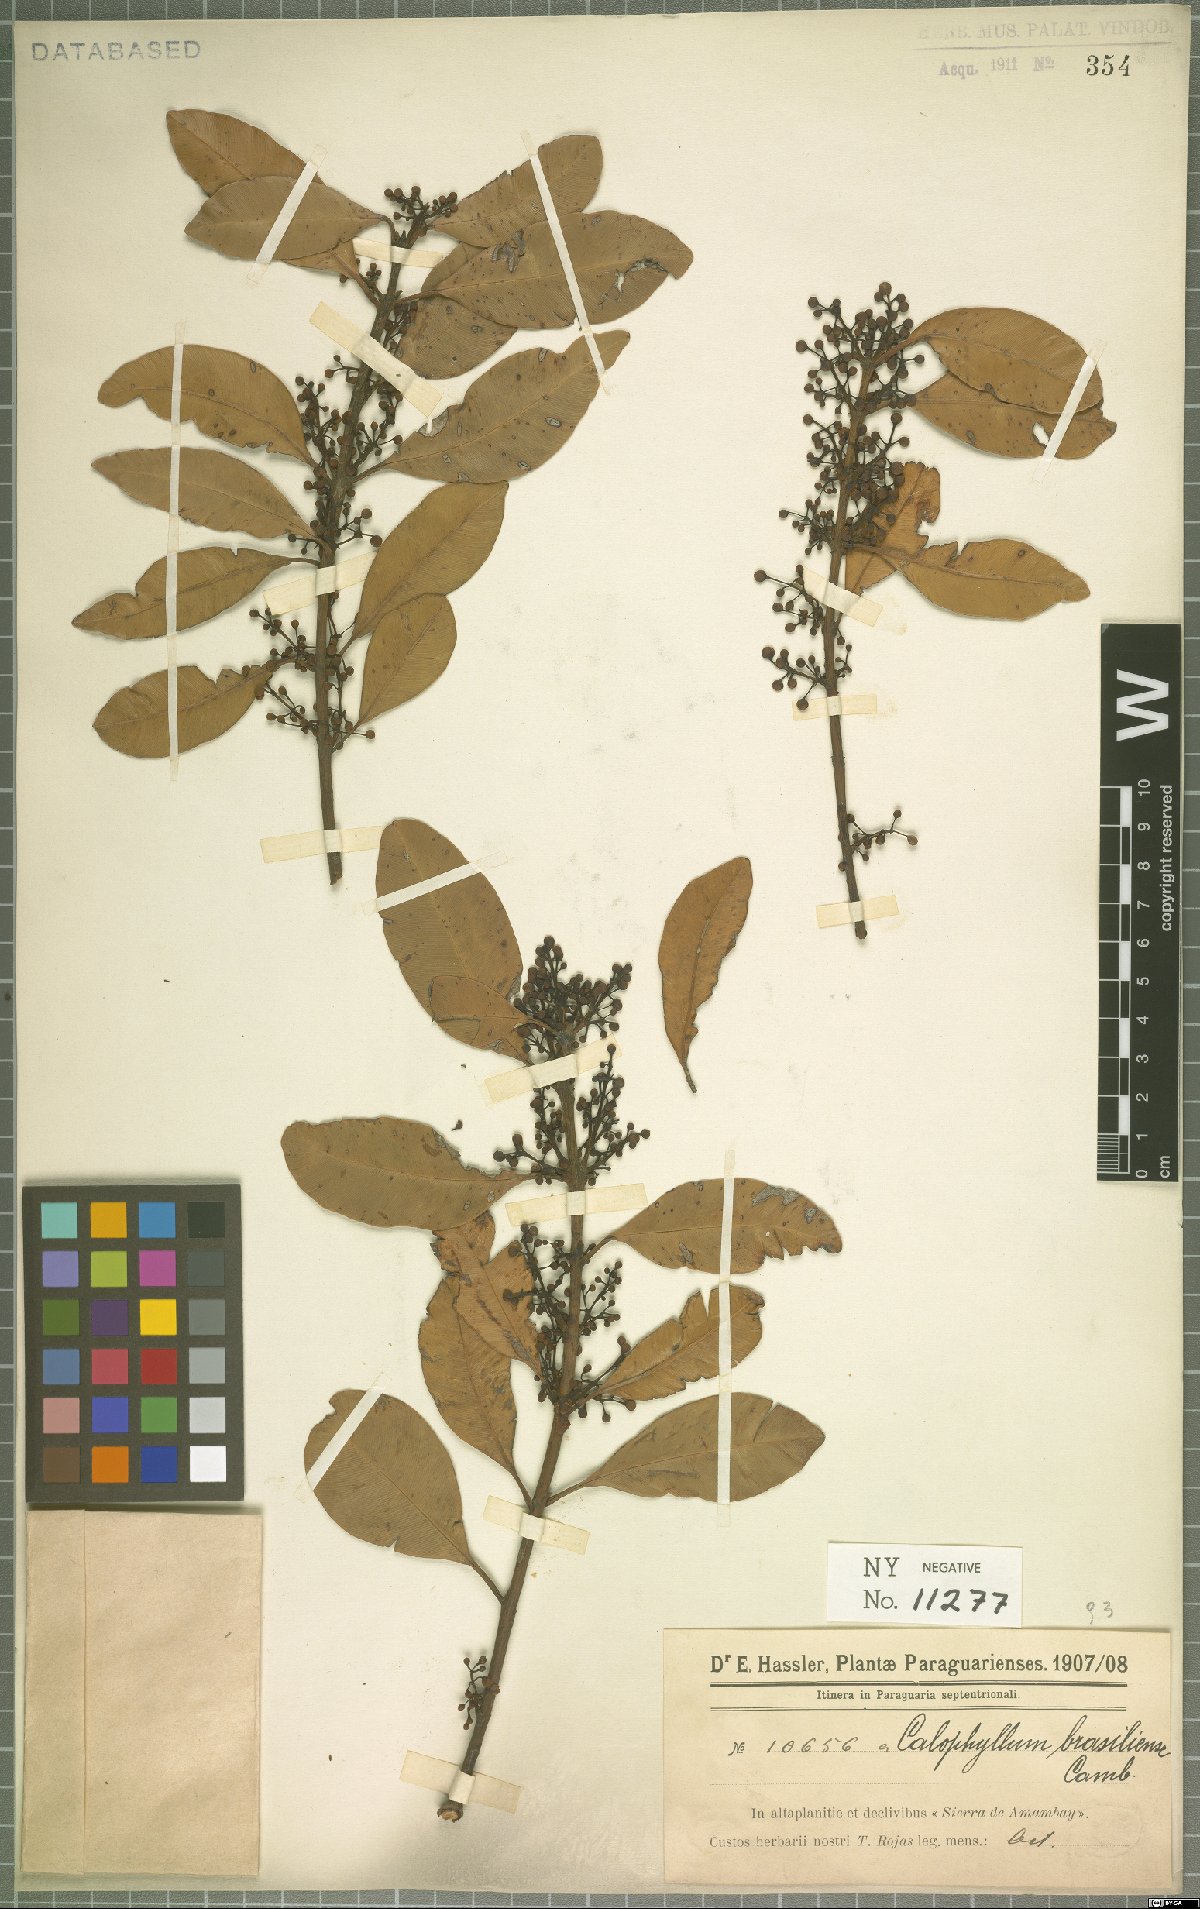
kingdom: Plantae
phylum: Tracheophyta
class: Magnoliopsida
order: Malpighiales
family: Calophyllaceae
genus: Calophyllum
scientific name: Calophyllum brasiliense
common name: Santa maria
